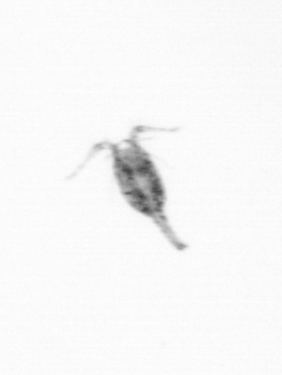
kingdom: Animalia
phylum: Arthropoda
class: Copepoda
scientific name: Copepoda
